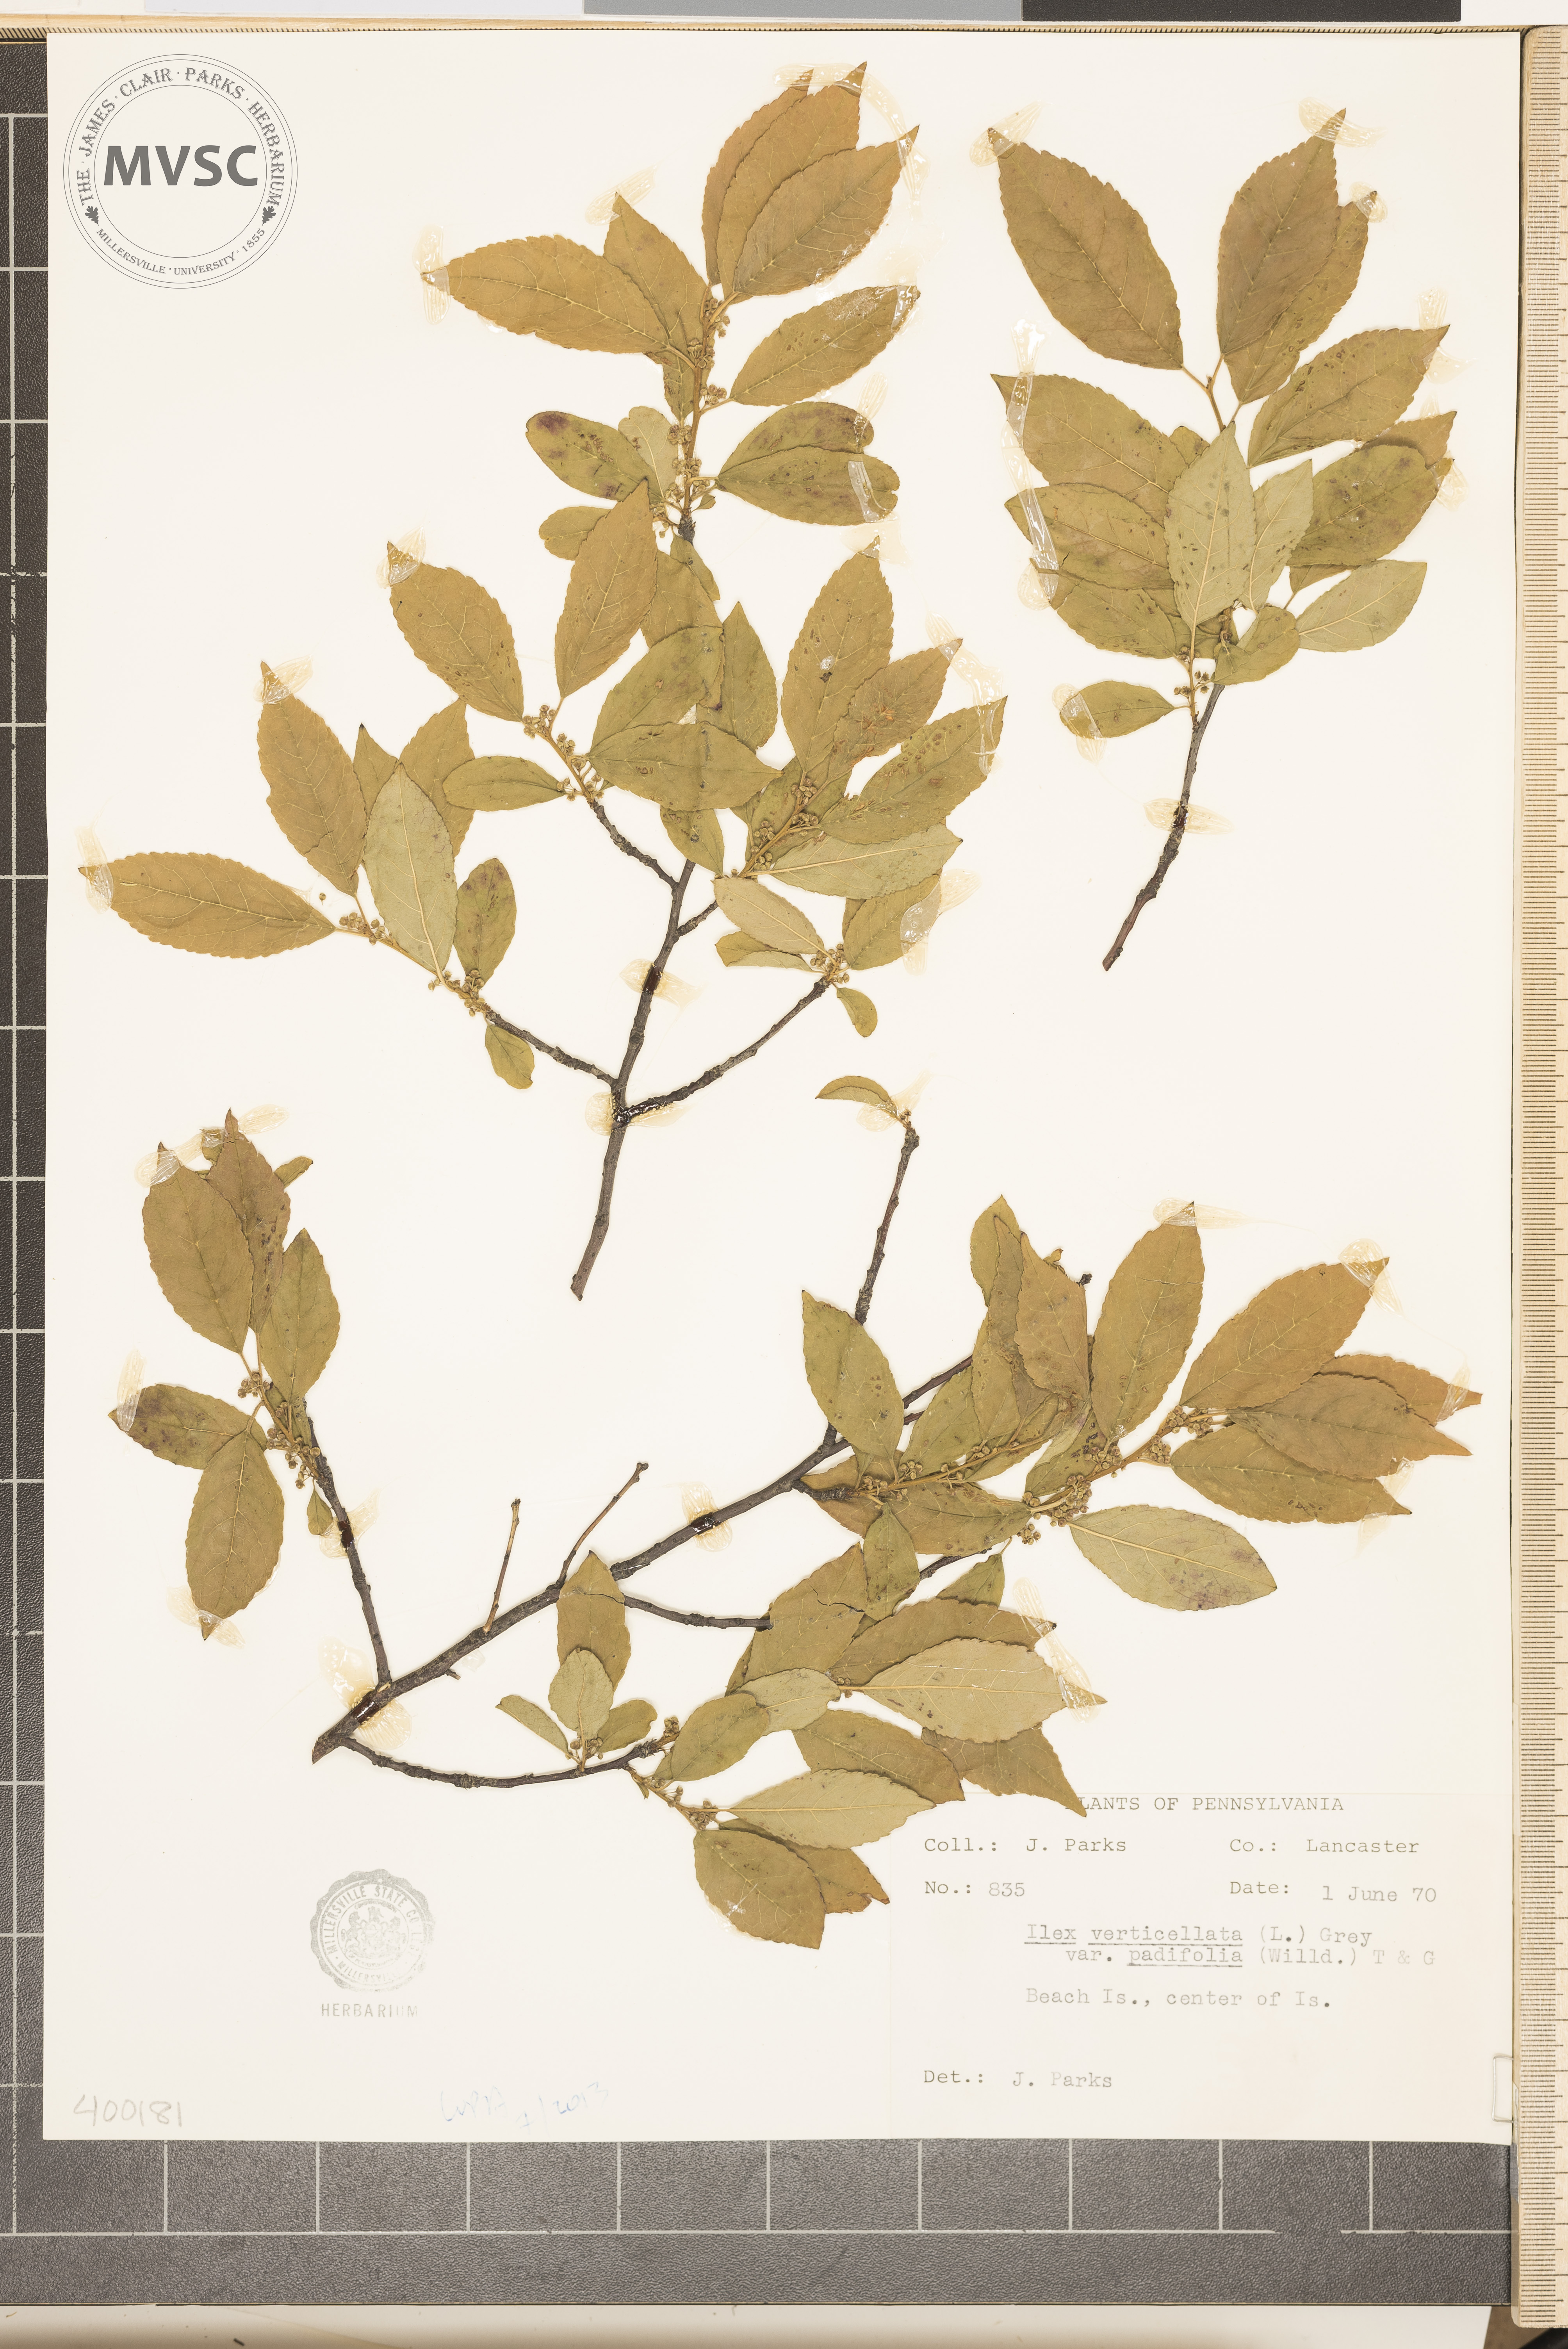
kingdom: Plantae
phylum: Tracheophyta
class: Magnoliopsida
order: Aquifoliales
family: Aquifoliaceae
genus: Ilex
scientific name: Ilex verticillata
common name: Virginia winterberry
